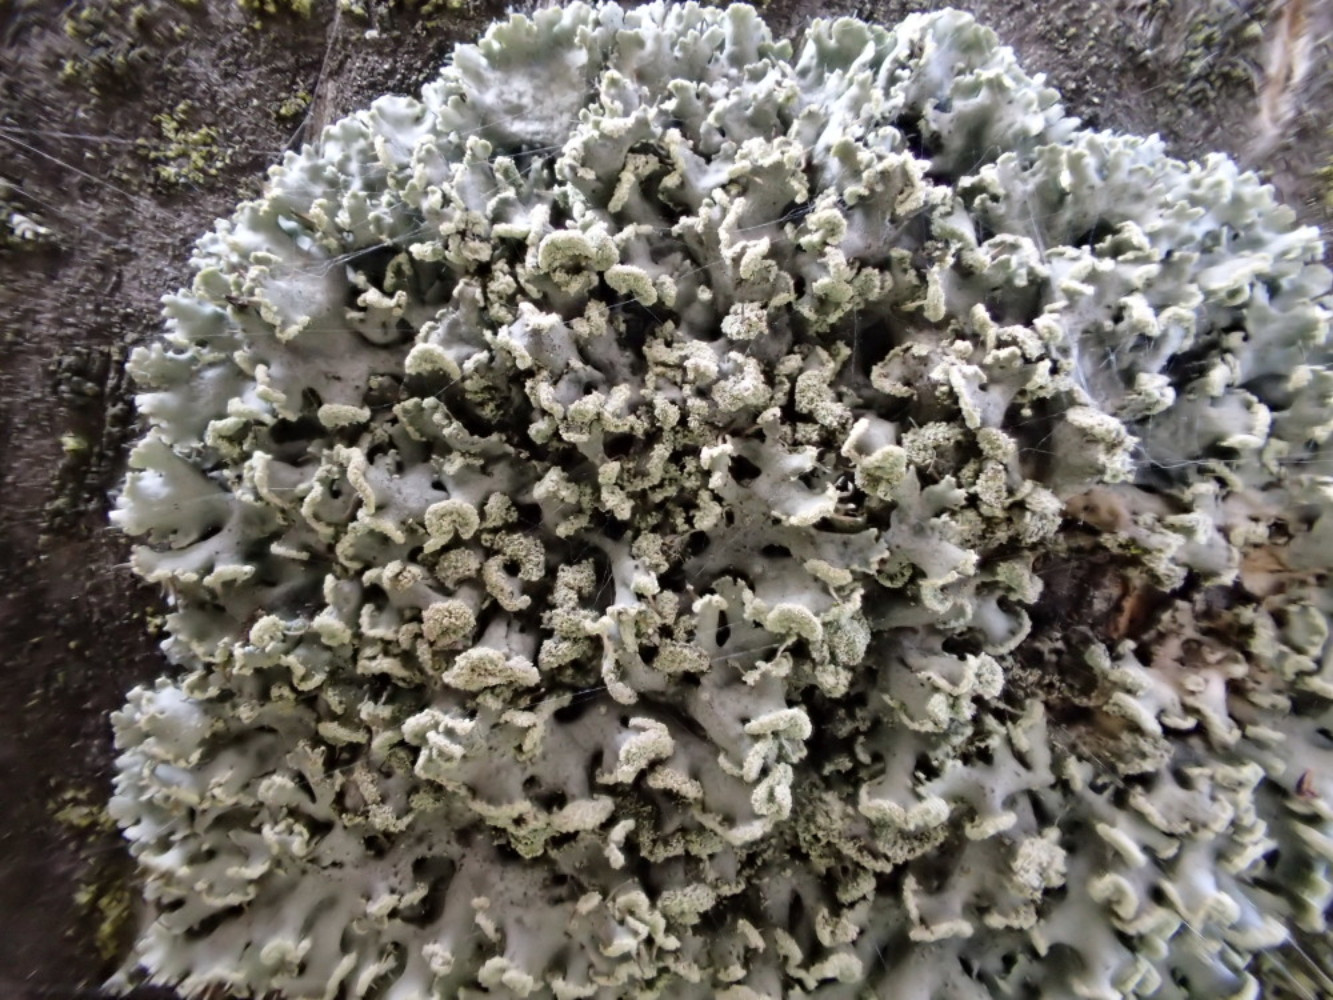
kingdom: Fungi
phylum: Ascomycota
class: Lecanoromycetes
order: Caliciales
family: Physciaceae
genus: Physcia
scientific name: Physcia tenella
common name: spæd rosetlav
